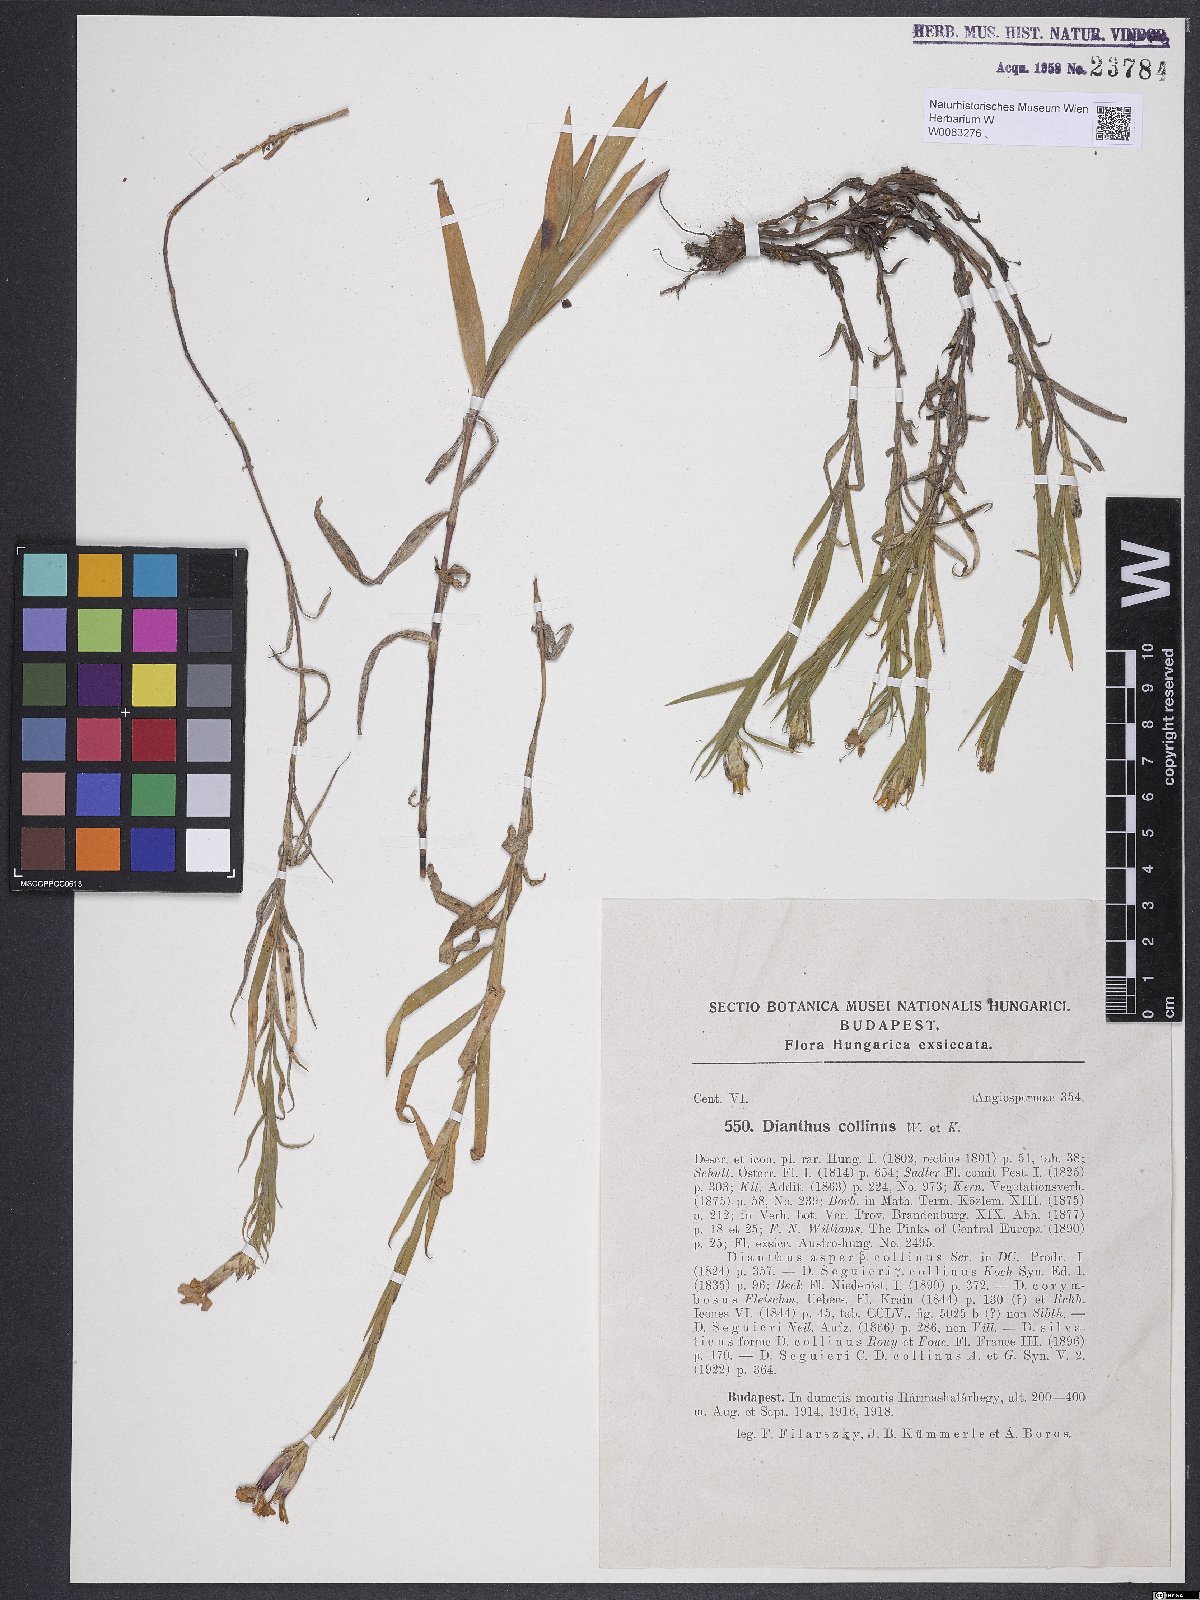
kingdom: Plantae
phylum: Tracheophyta
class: Magnoliopsida
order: Caryophyllales
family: Caryophyllaceae
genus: Dianthus
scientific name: Dianthus collinus
